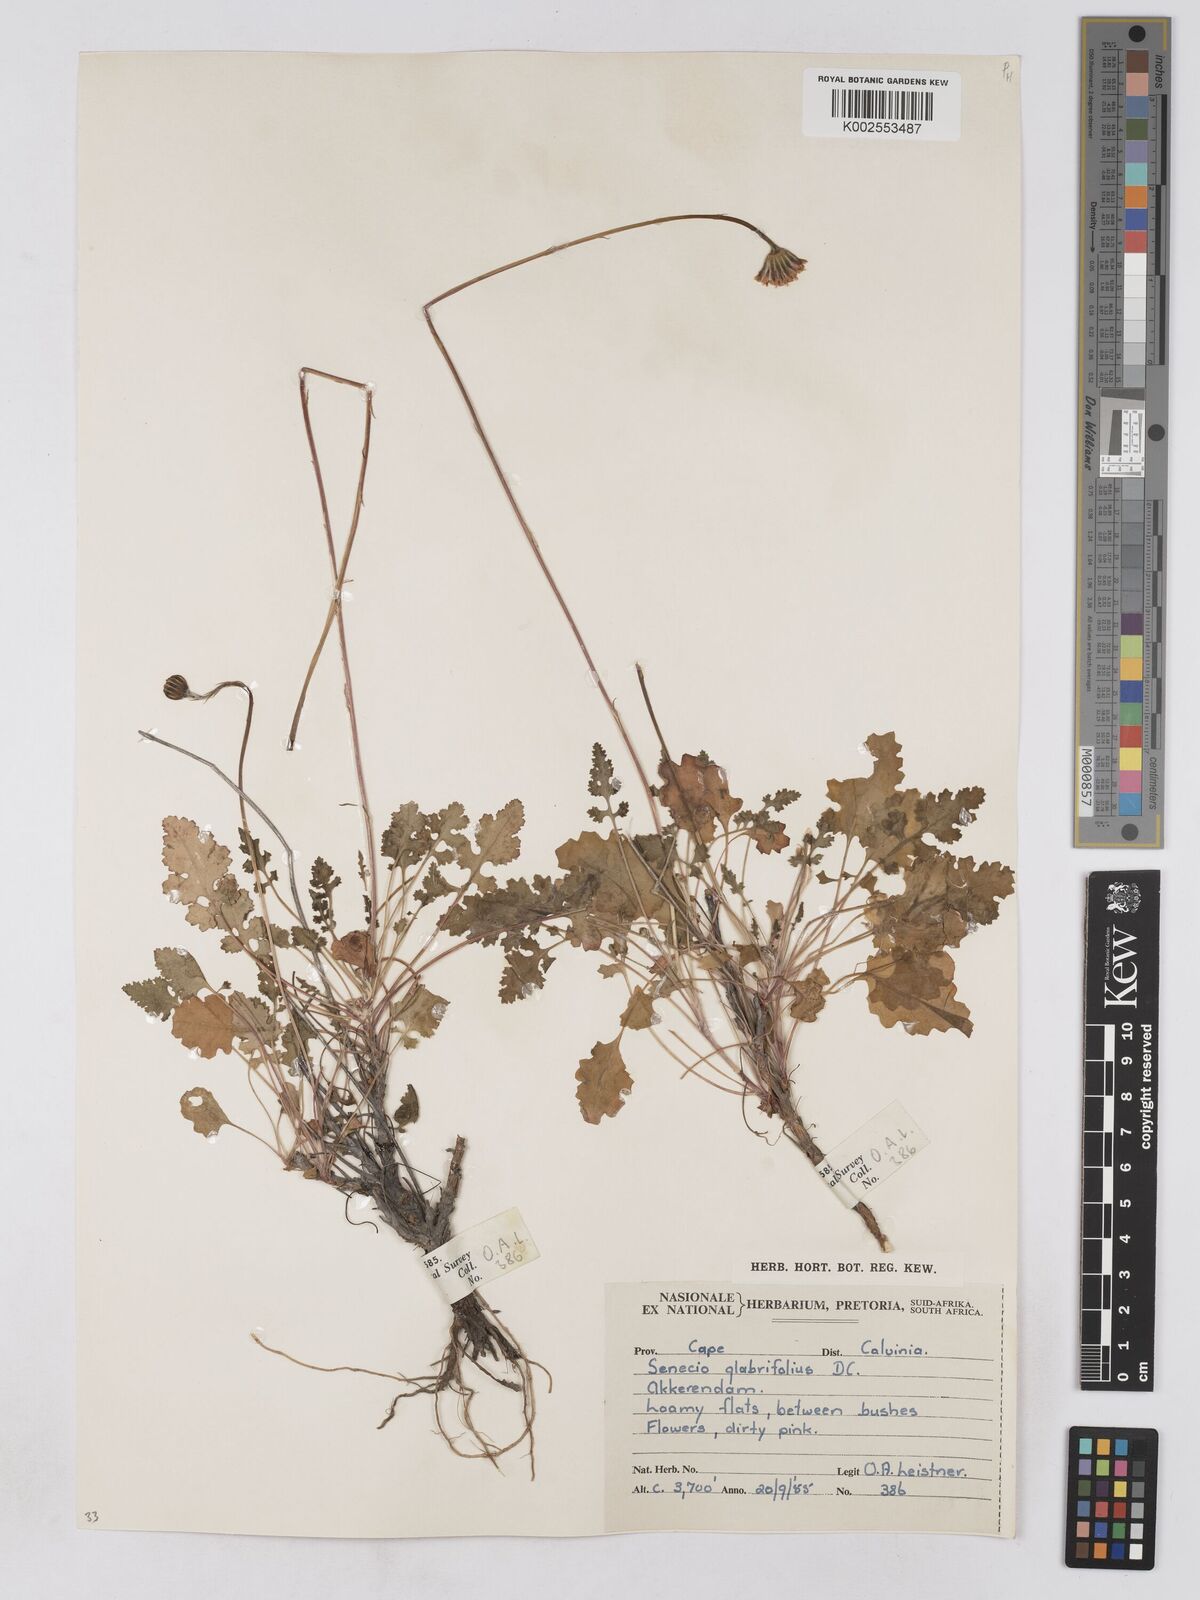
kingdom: Plantae
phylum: Tracheophyta
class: Magnoliopsida
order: Asterales
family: Asteraceae
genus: Bolandia
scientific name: Bolandia glabrifolia
